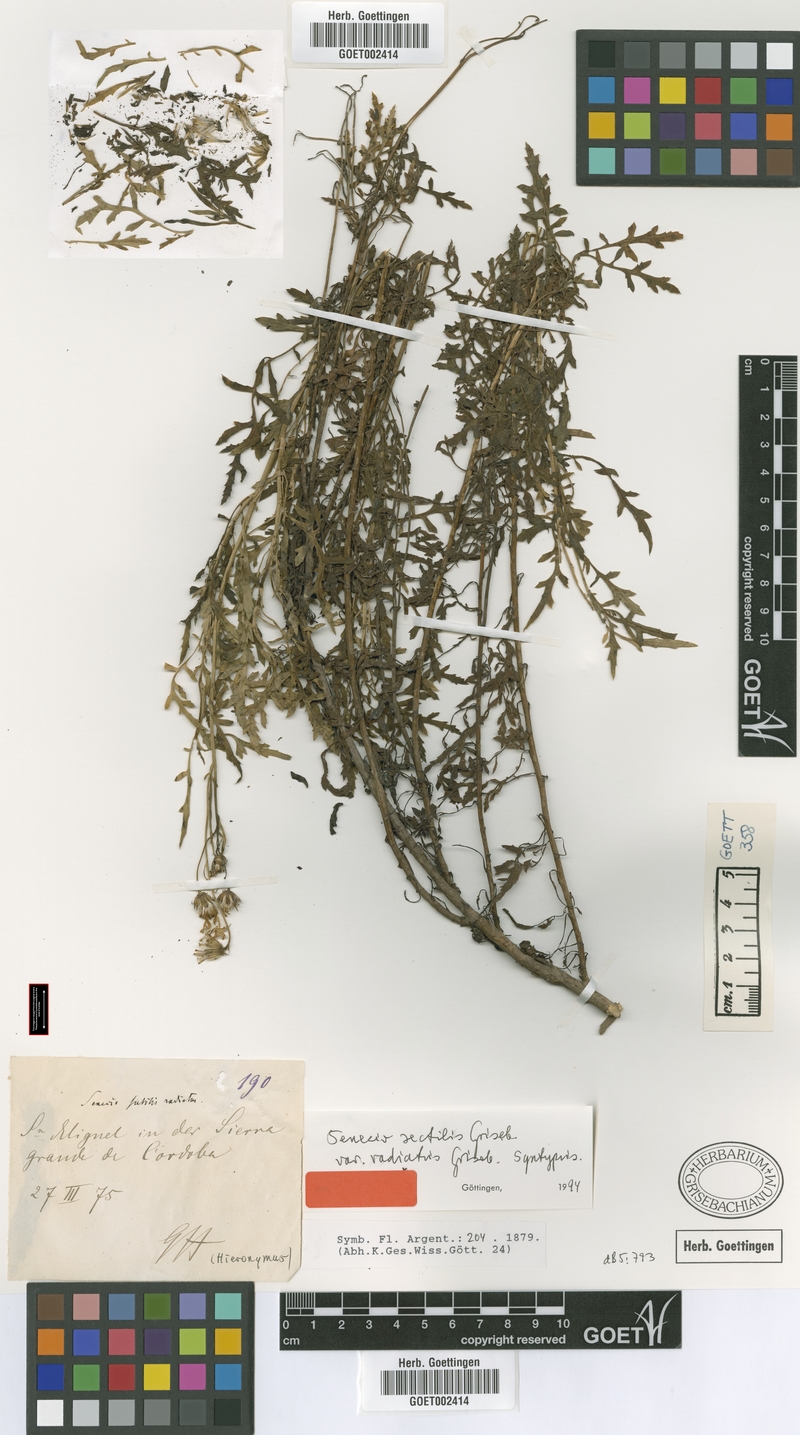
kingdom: Plantae
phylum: Tracheophyta
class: Magnoliopsida
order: Asterales
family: Asteraceae
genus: Senecio
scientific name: Senecio sectilis
